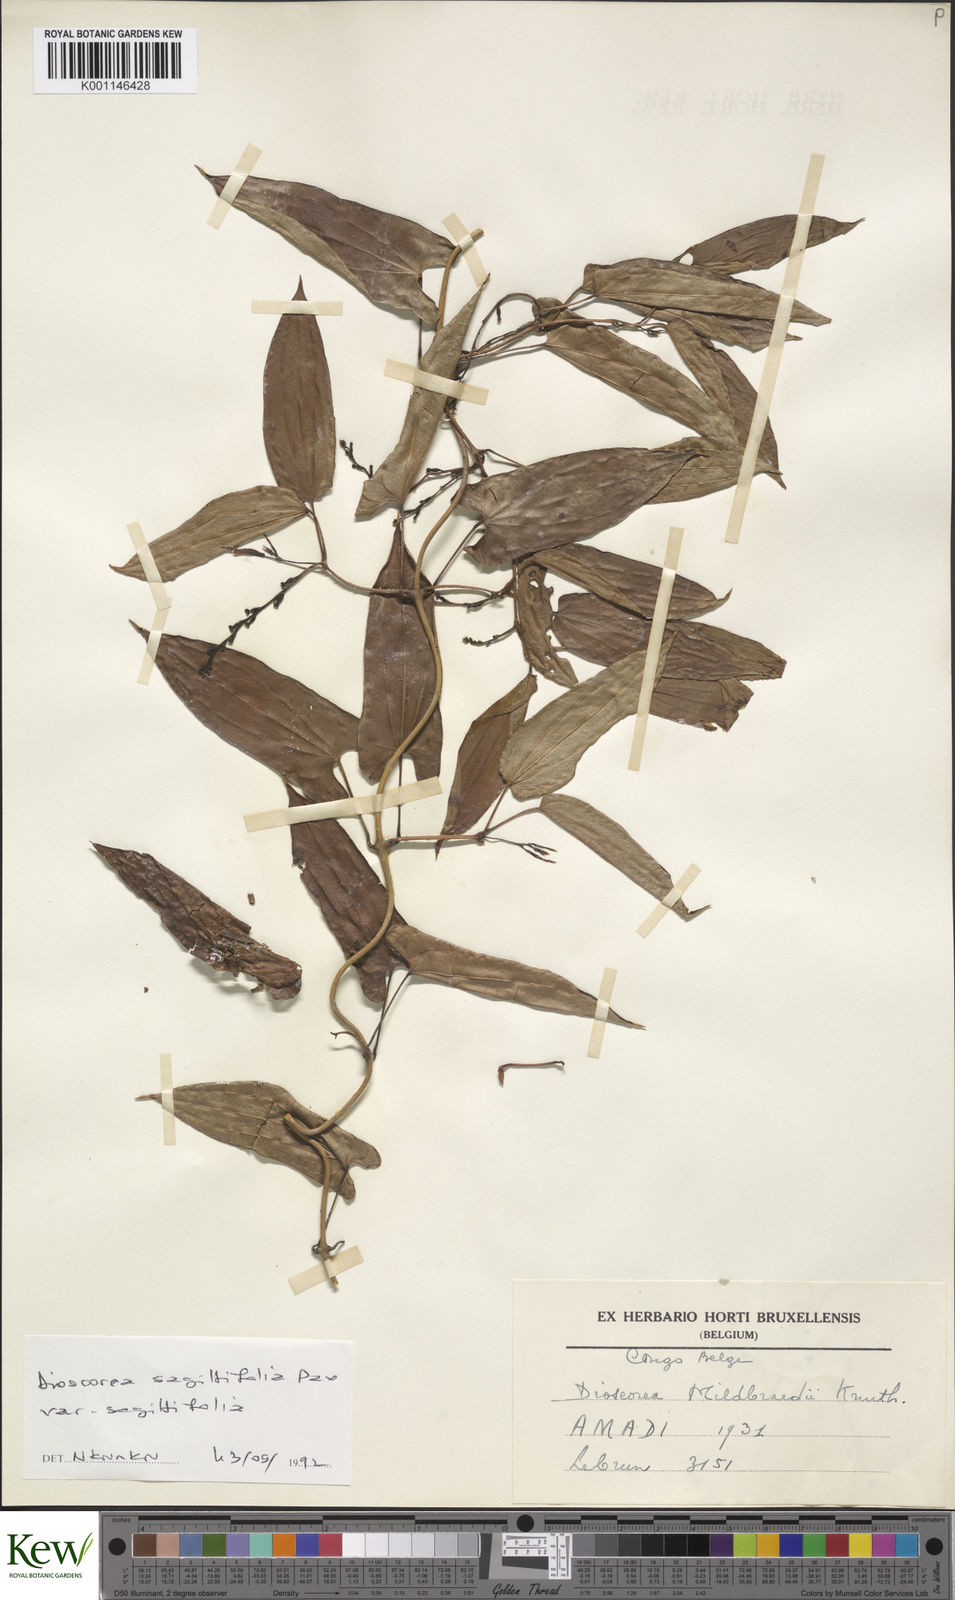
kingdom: Plantae
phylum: Tracheophyta
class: Liliopsida
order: Dioscoreales
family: Dioscoreaceae
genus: Dioscorea
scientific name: Dioscorea sagittifolia
